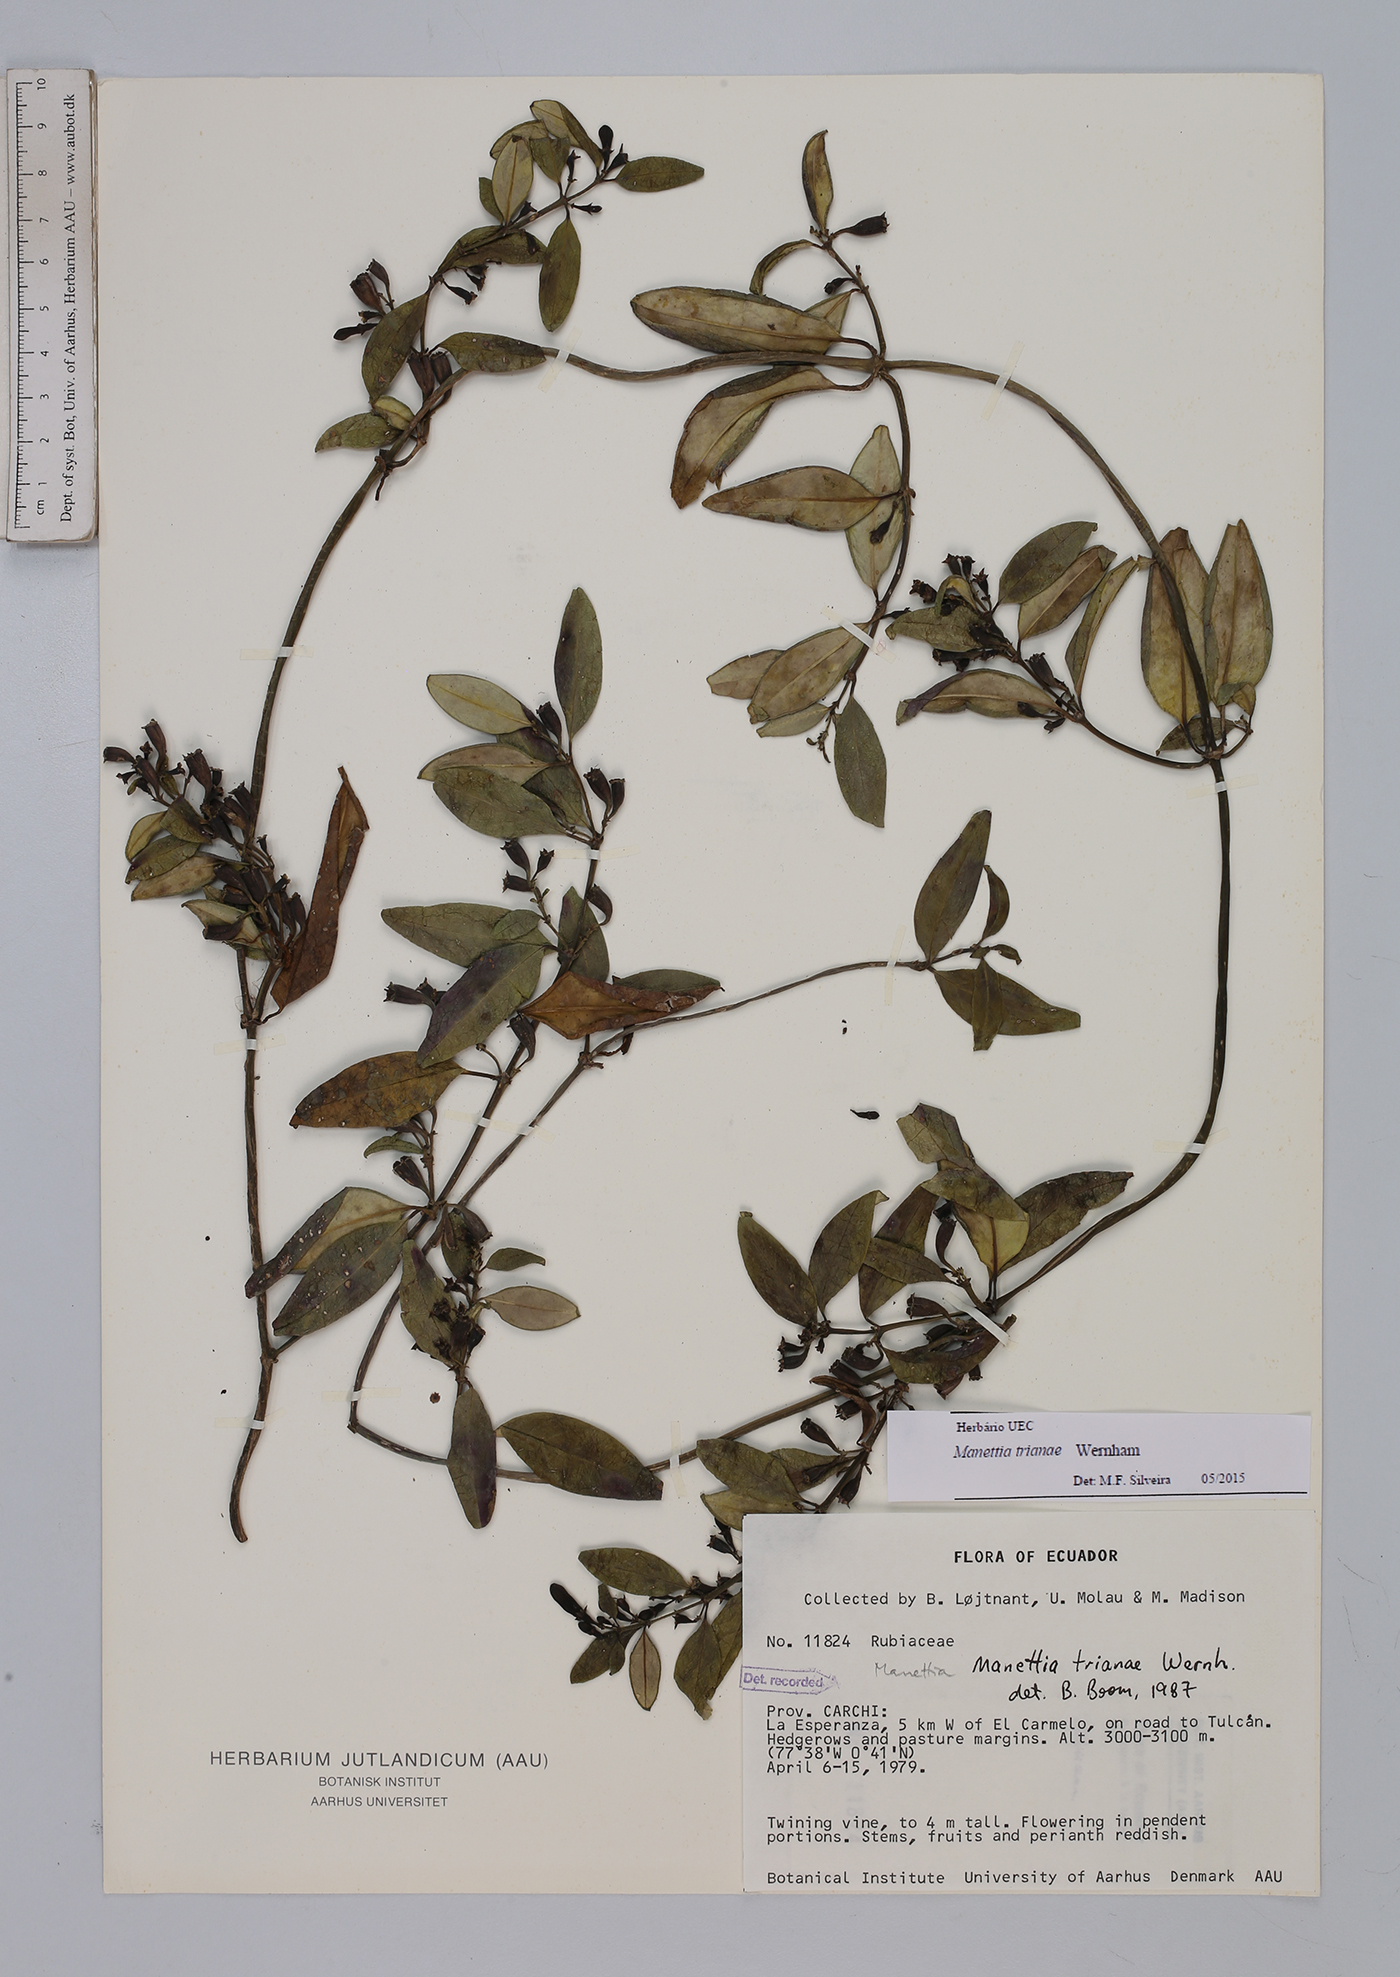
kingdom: Plantae
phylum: Tracheophyta
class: Magnoliopsida
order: Gentianales
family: Rubiaceae
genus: Manettia
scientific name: Manettia trianae
